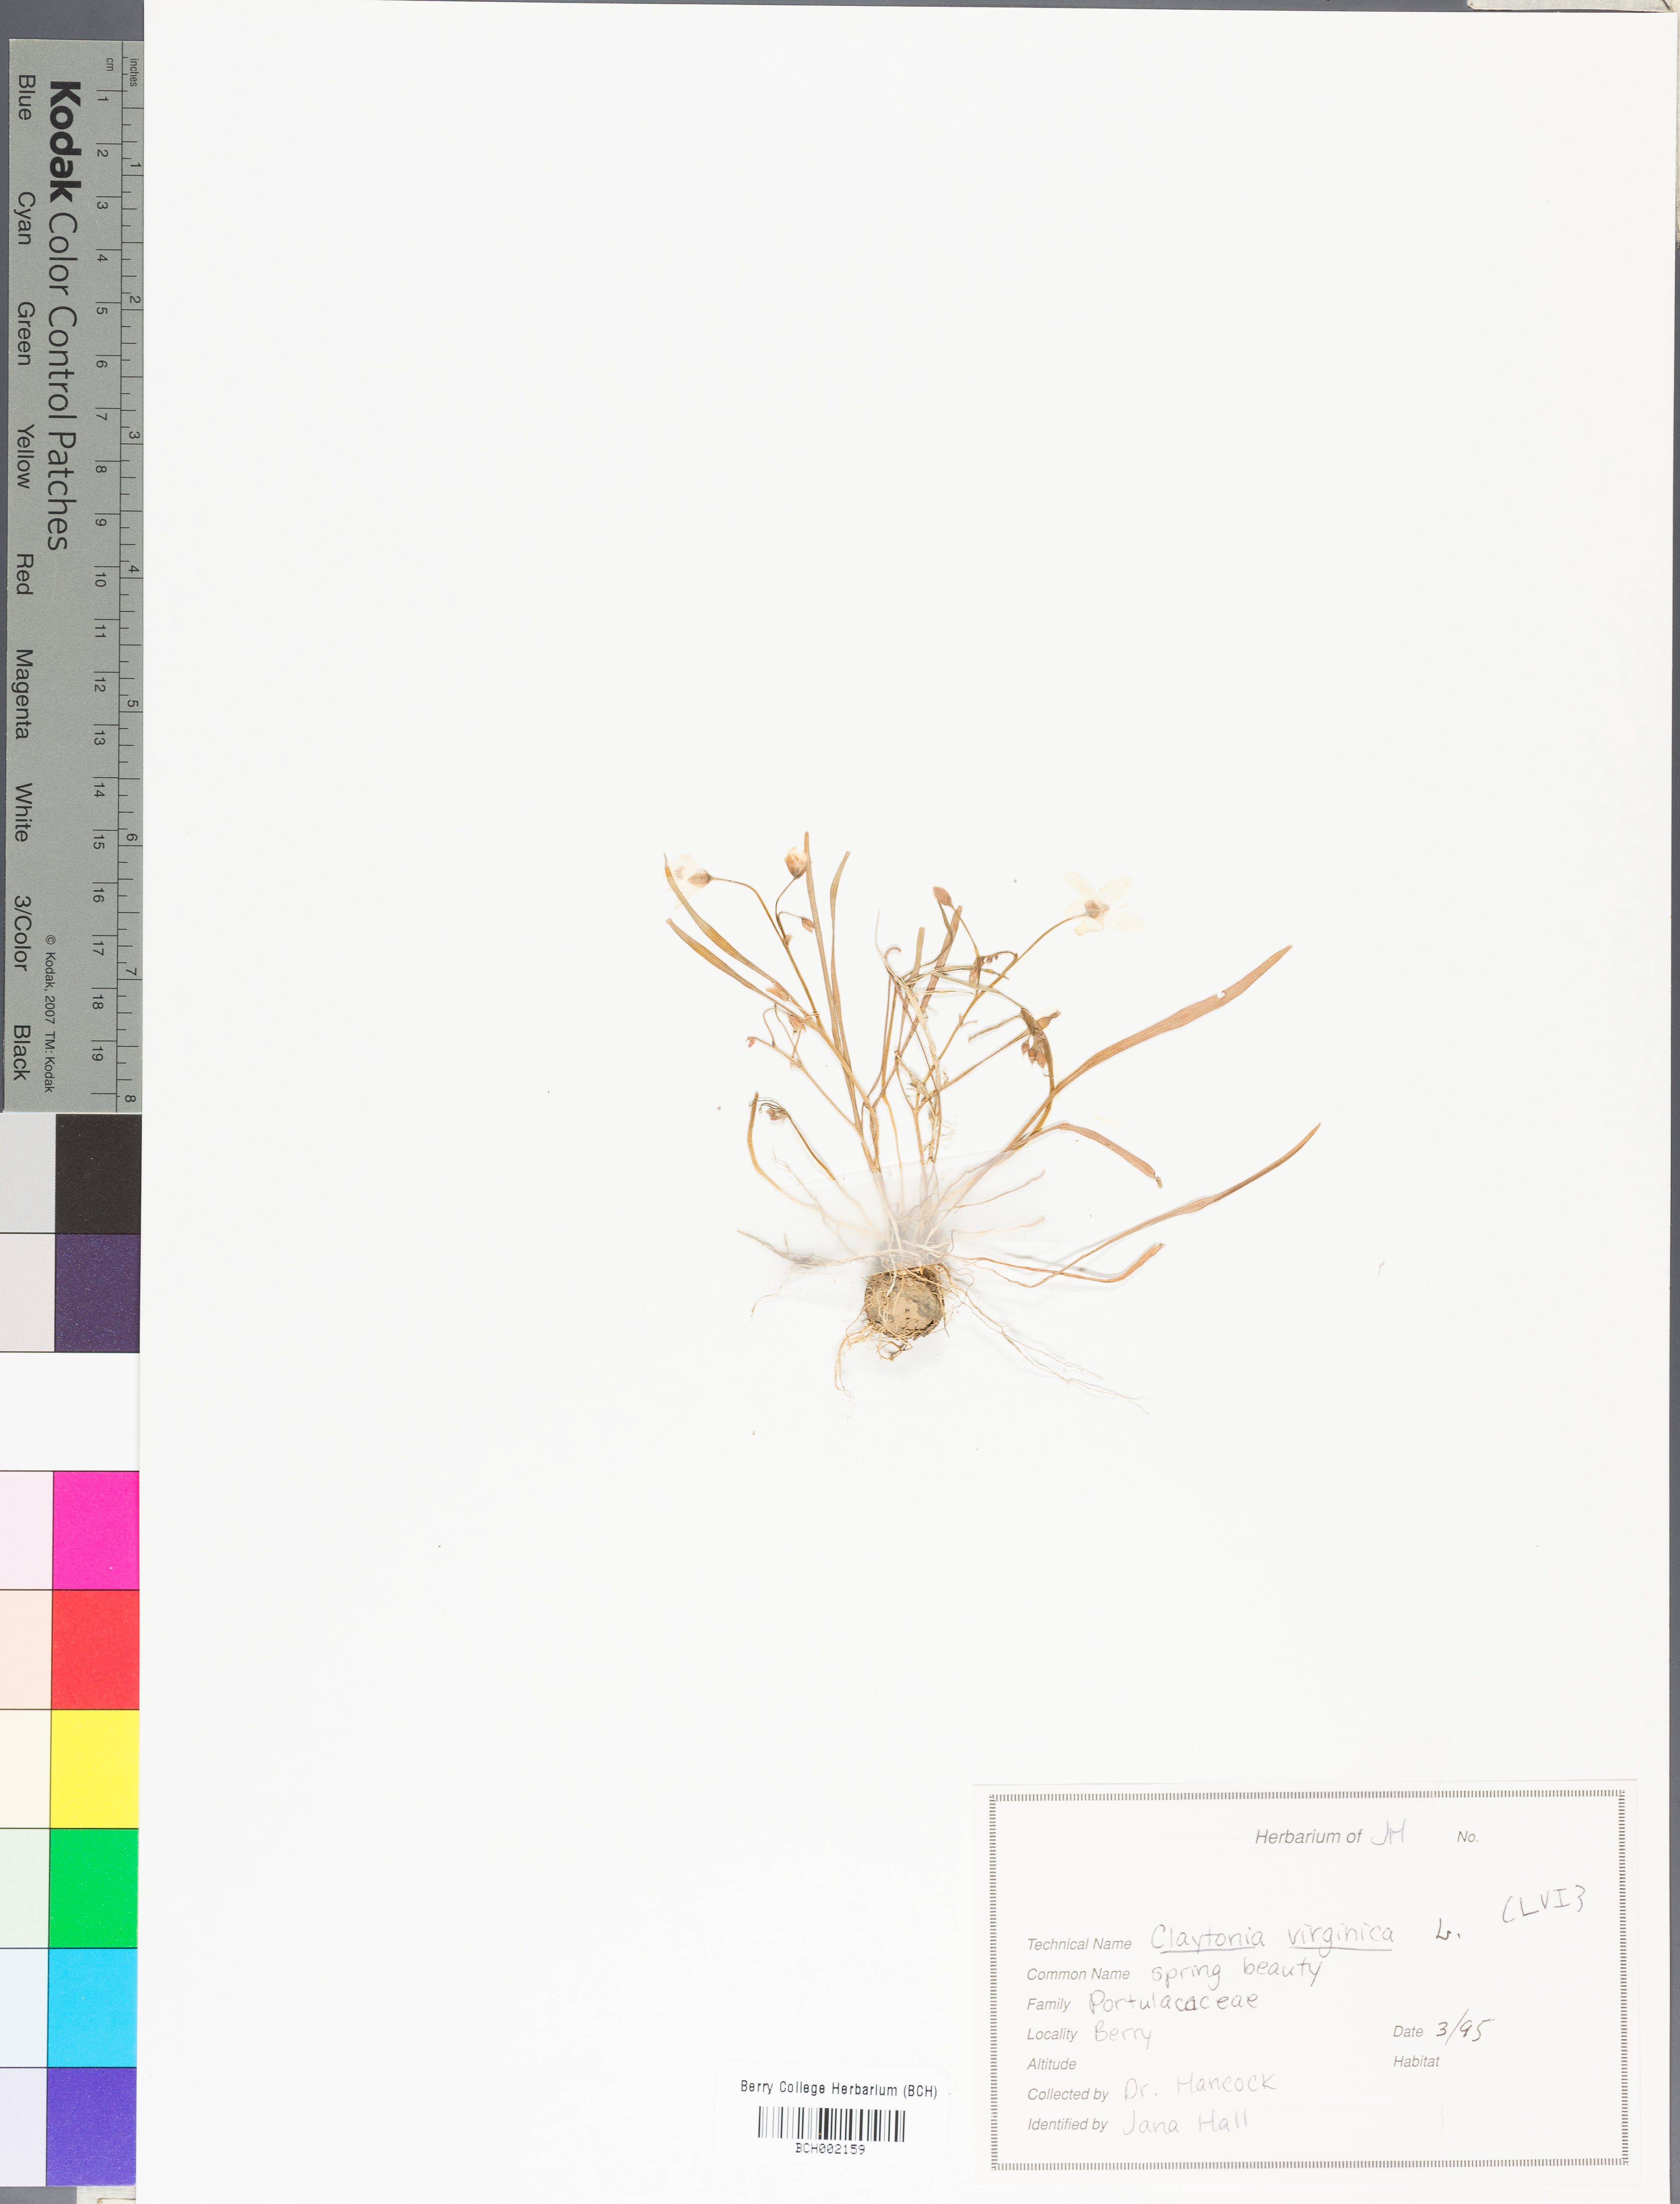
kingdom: Plantae
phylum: Tracheophyta
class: Magnoliopsida
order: Caryophyllales
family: Montiaceae
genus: Claytonia
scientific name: Claytonia virginica
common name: Virginia springbeauty
